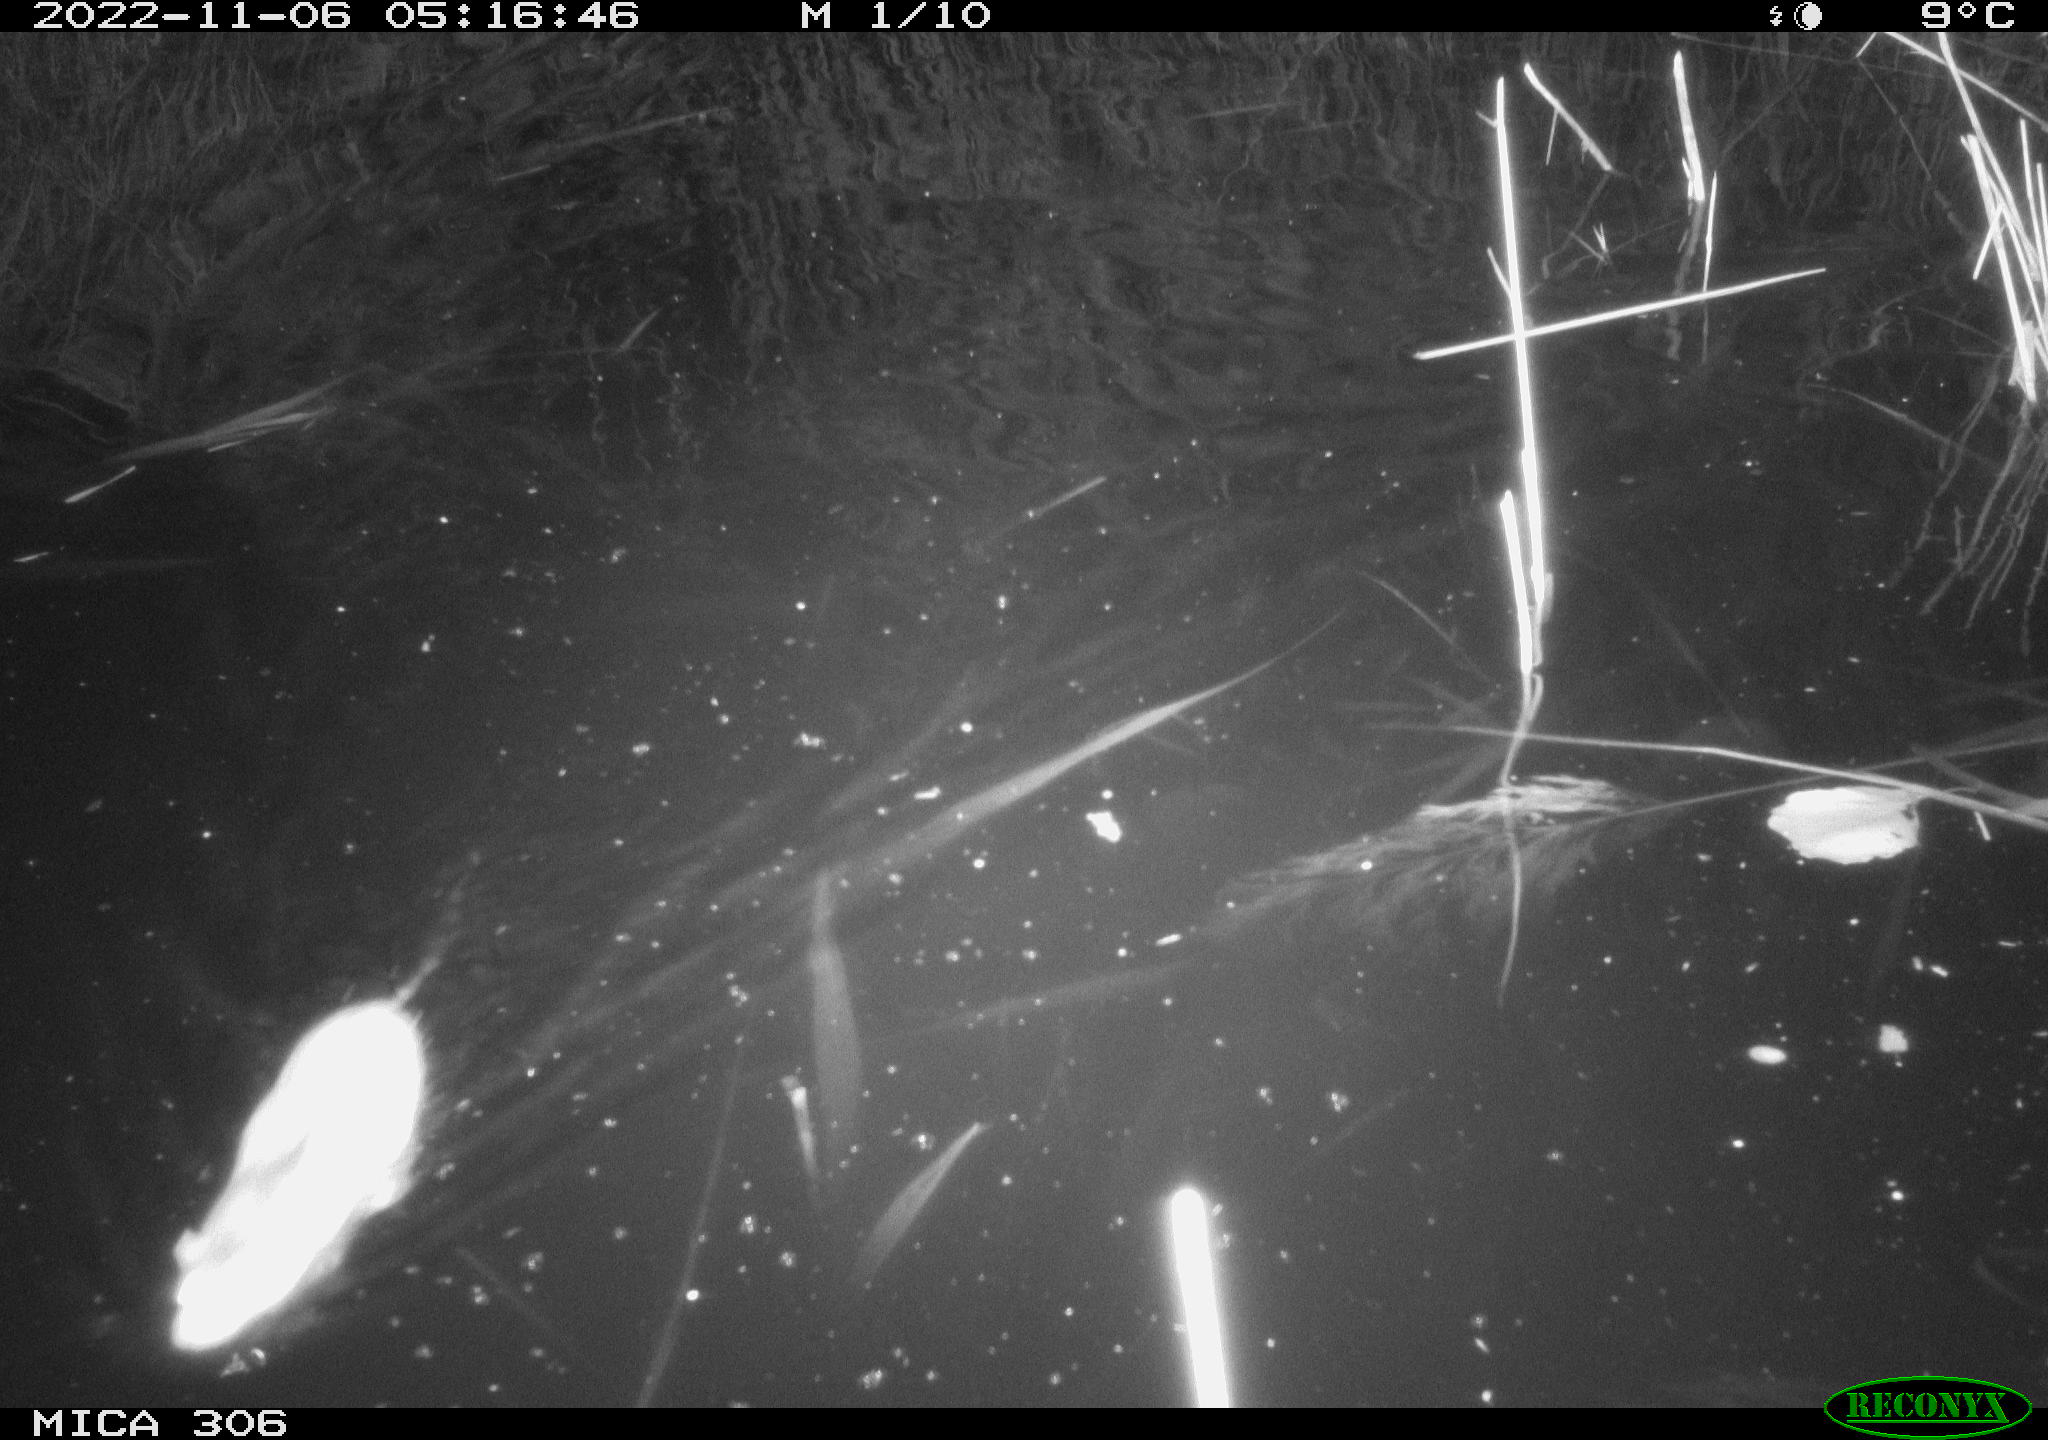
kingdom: Animalia
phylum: Chordata
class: Mammalia
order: Rodentia
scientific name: Rodentia
